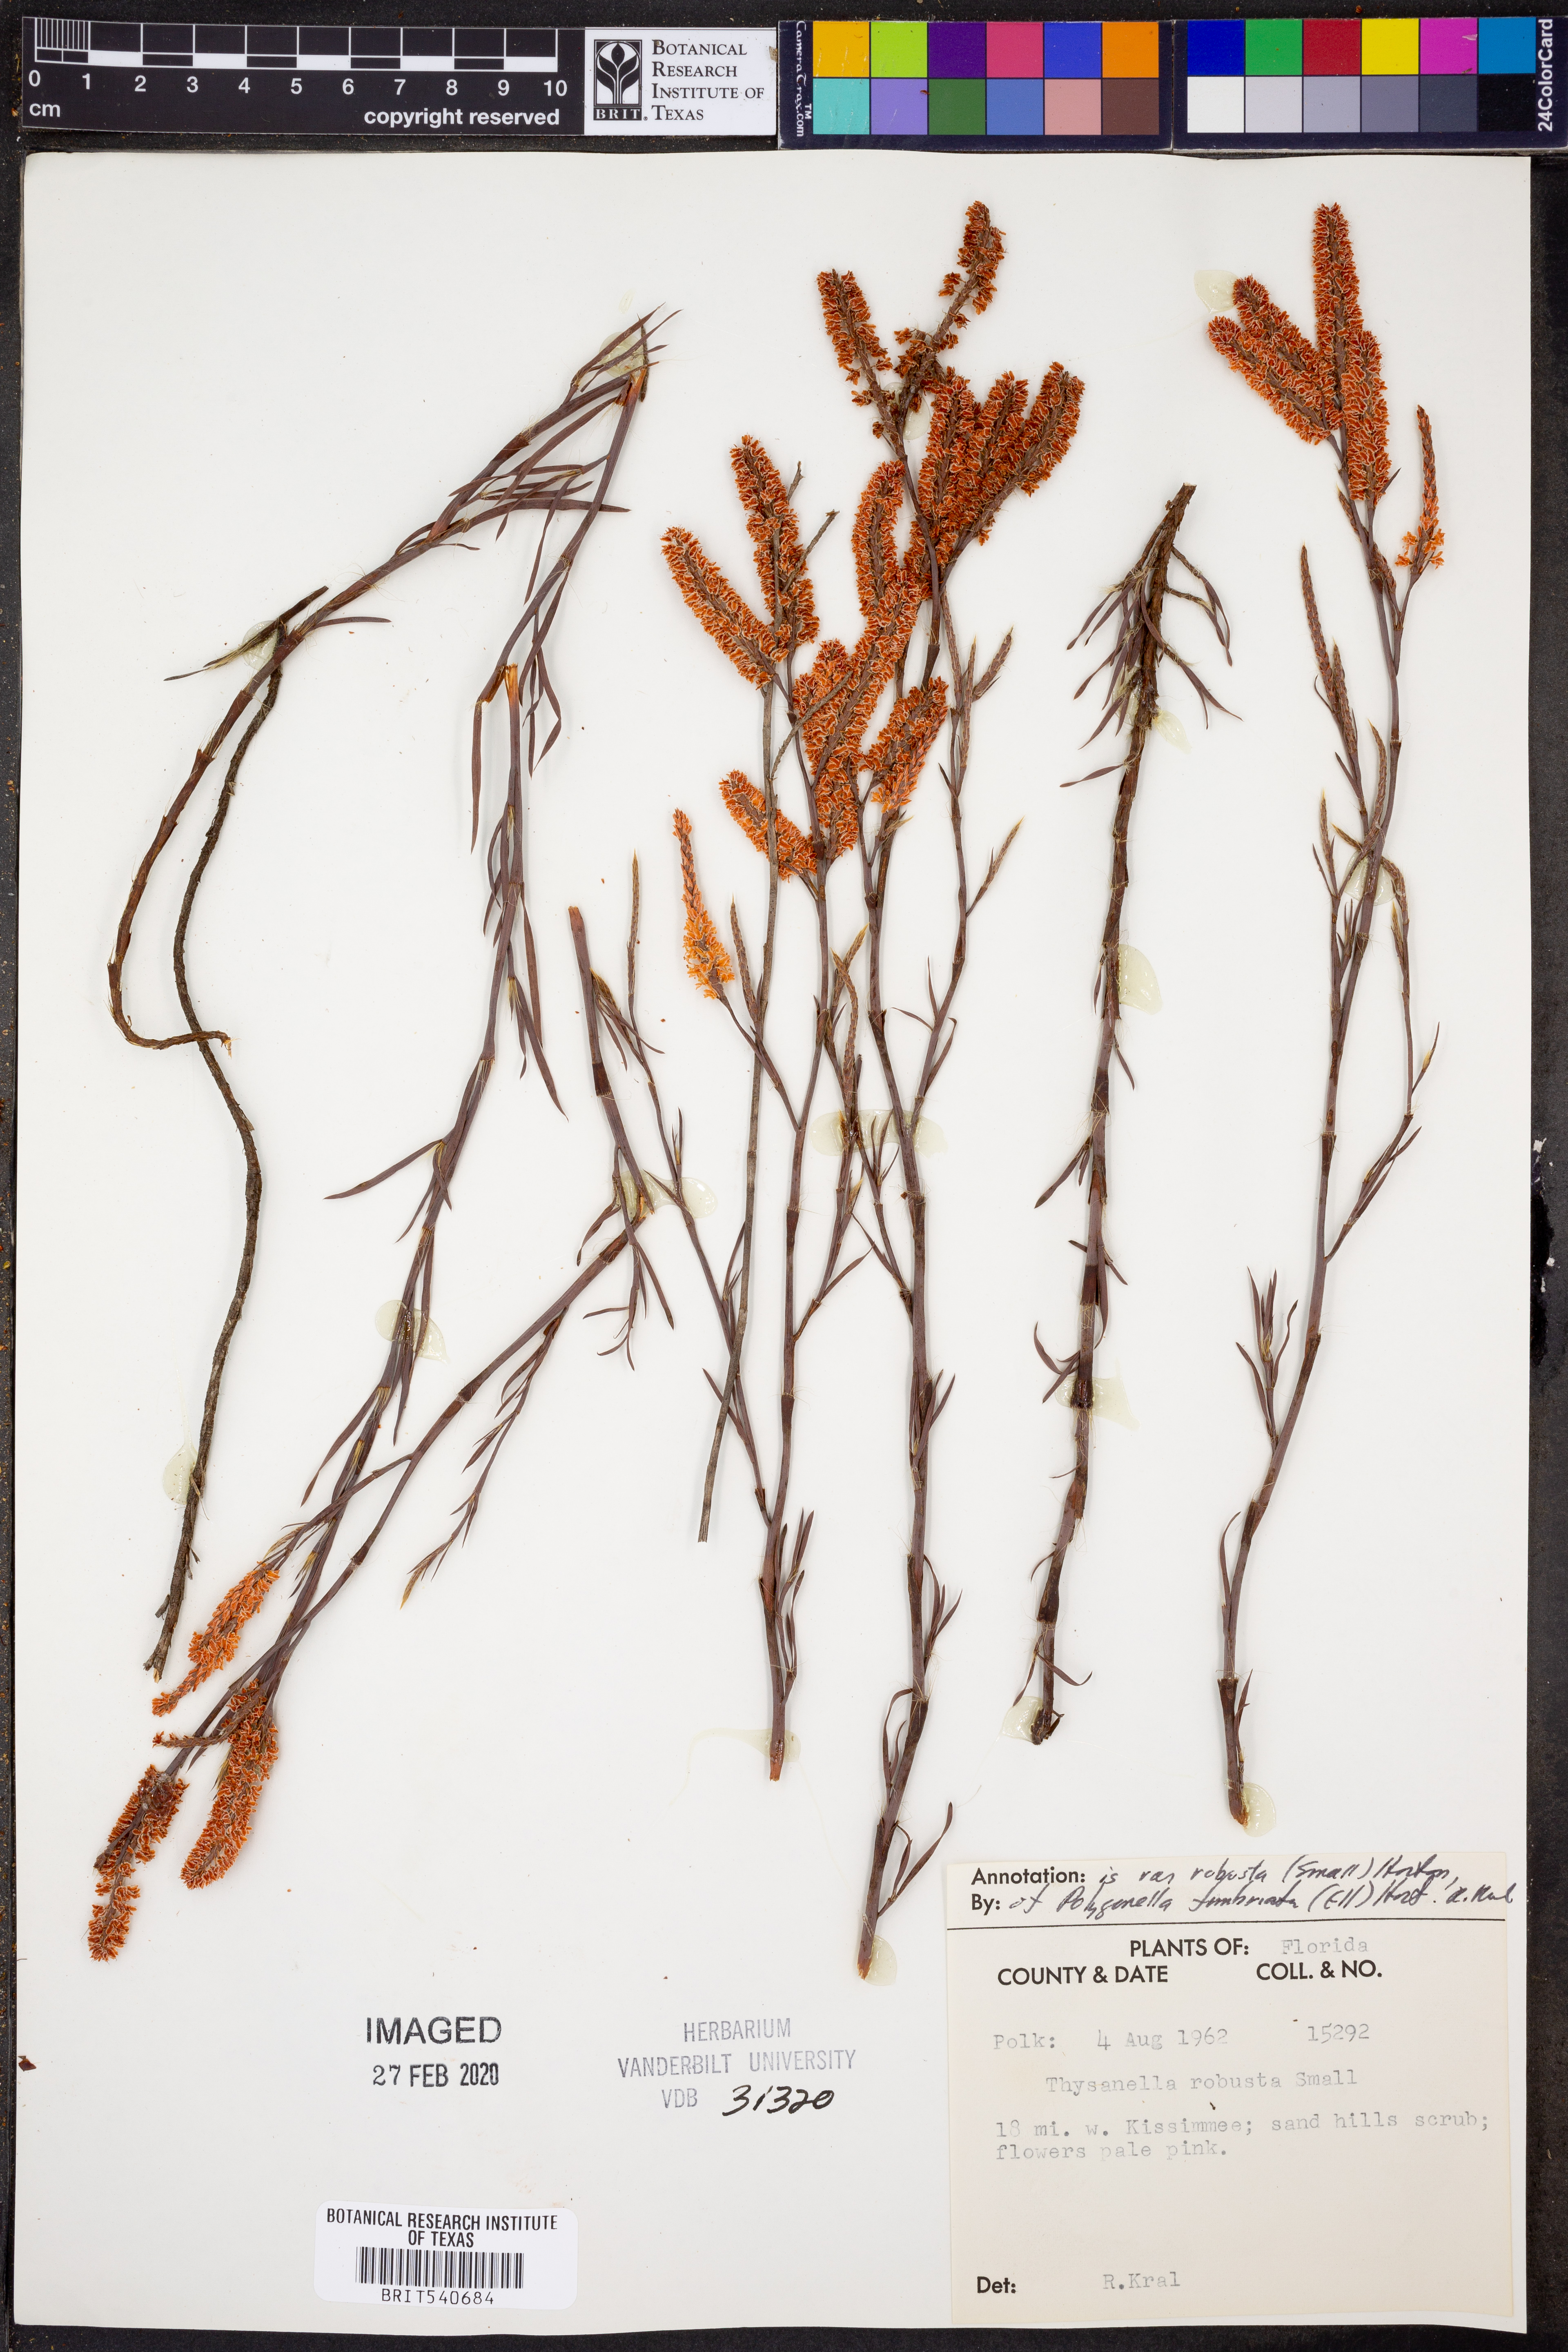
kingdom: Plantae
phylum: Tracheophyta
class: Magnoliopsida
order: Caryophyllales
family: Polygonaceae
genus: Polygonella
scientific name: Polygonella robusta
